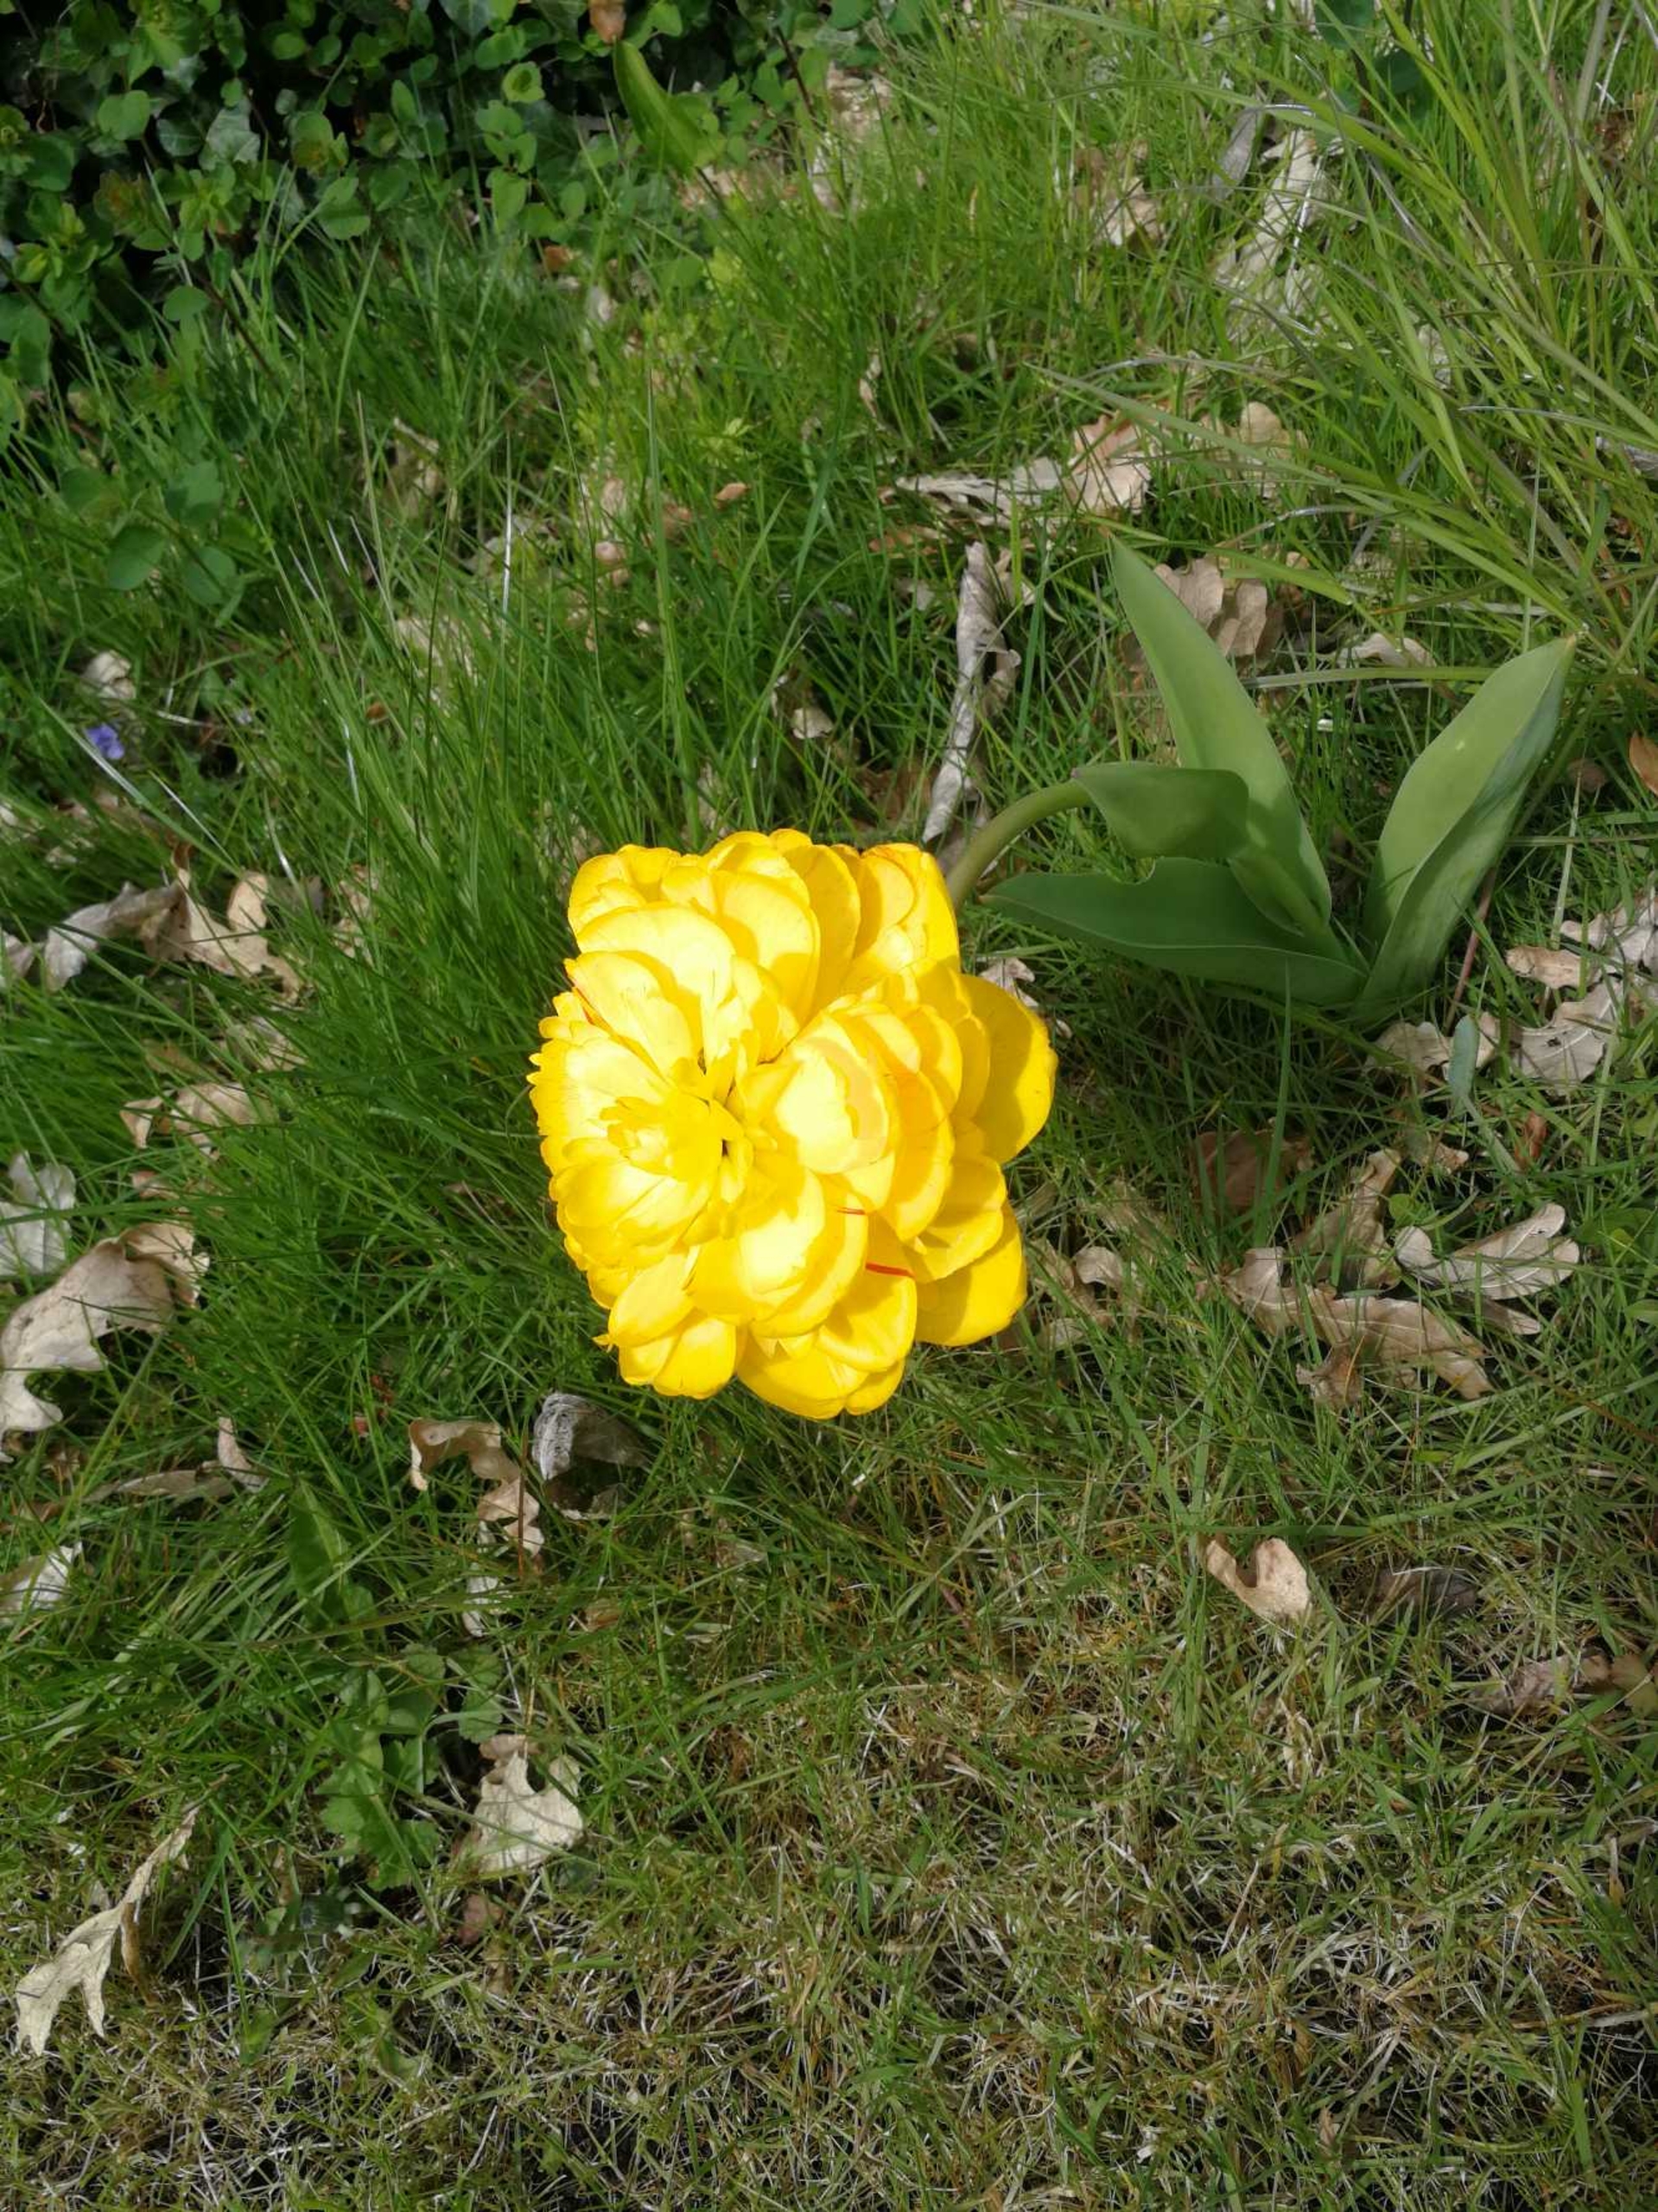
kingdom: Plantae
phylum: Tracheophyta
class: Liliopsida
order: Liliales
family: Liliaceae
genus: Tulipa
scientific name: Tulipa gesneriana
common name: Have-tulipan
